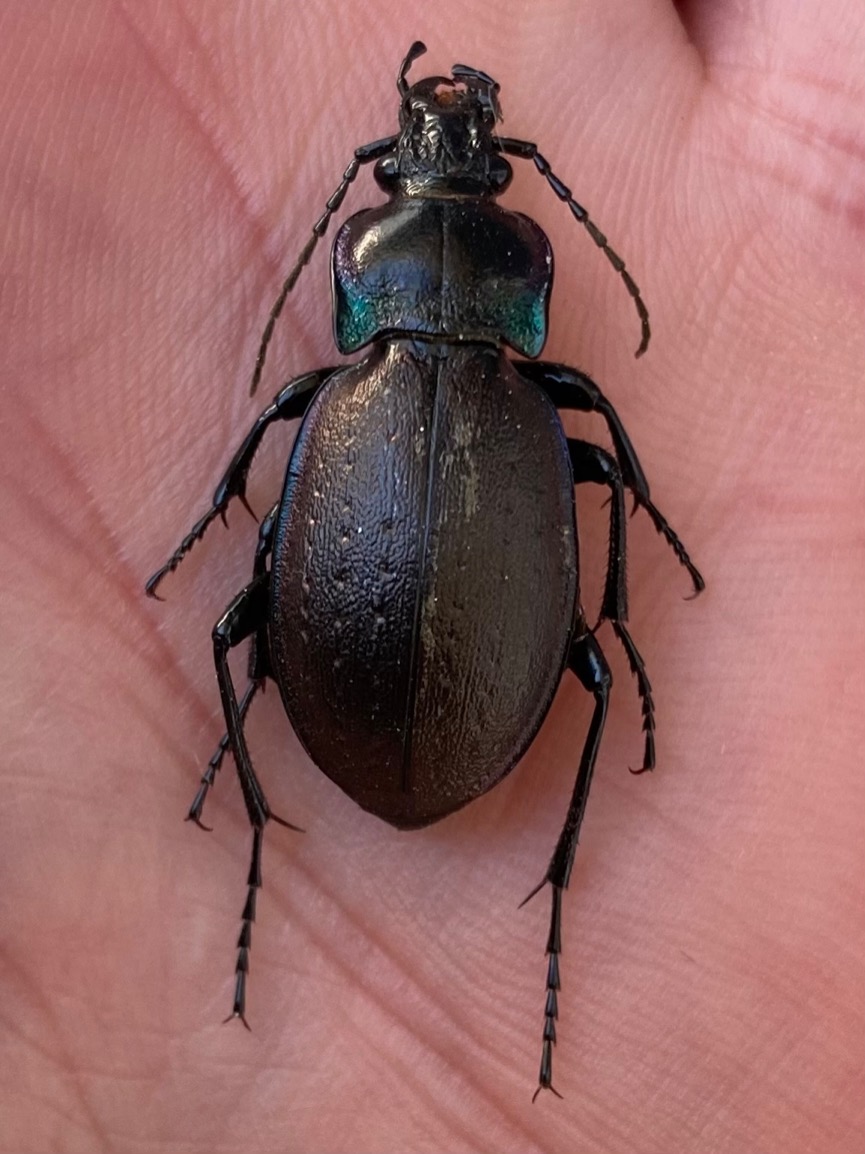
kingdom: Animalia
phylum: Arthropoda
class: Insecta
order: Coleoptera
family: Carabidae
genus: Carabus
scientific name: Carabus nemoralis
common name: Kratløber
